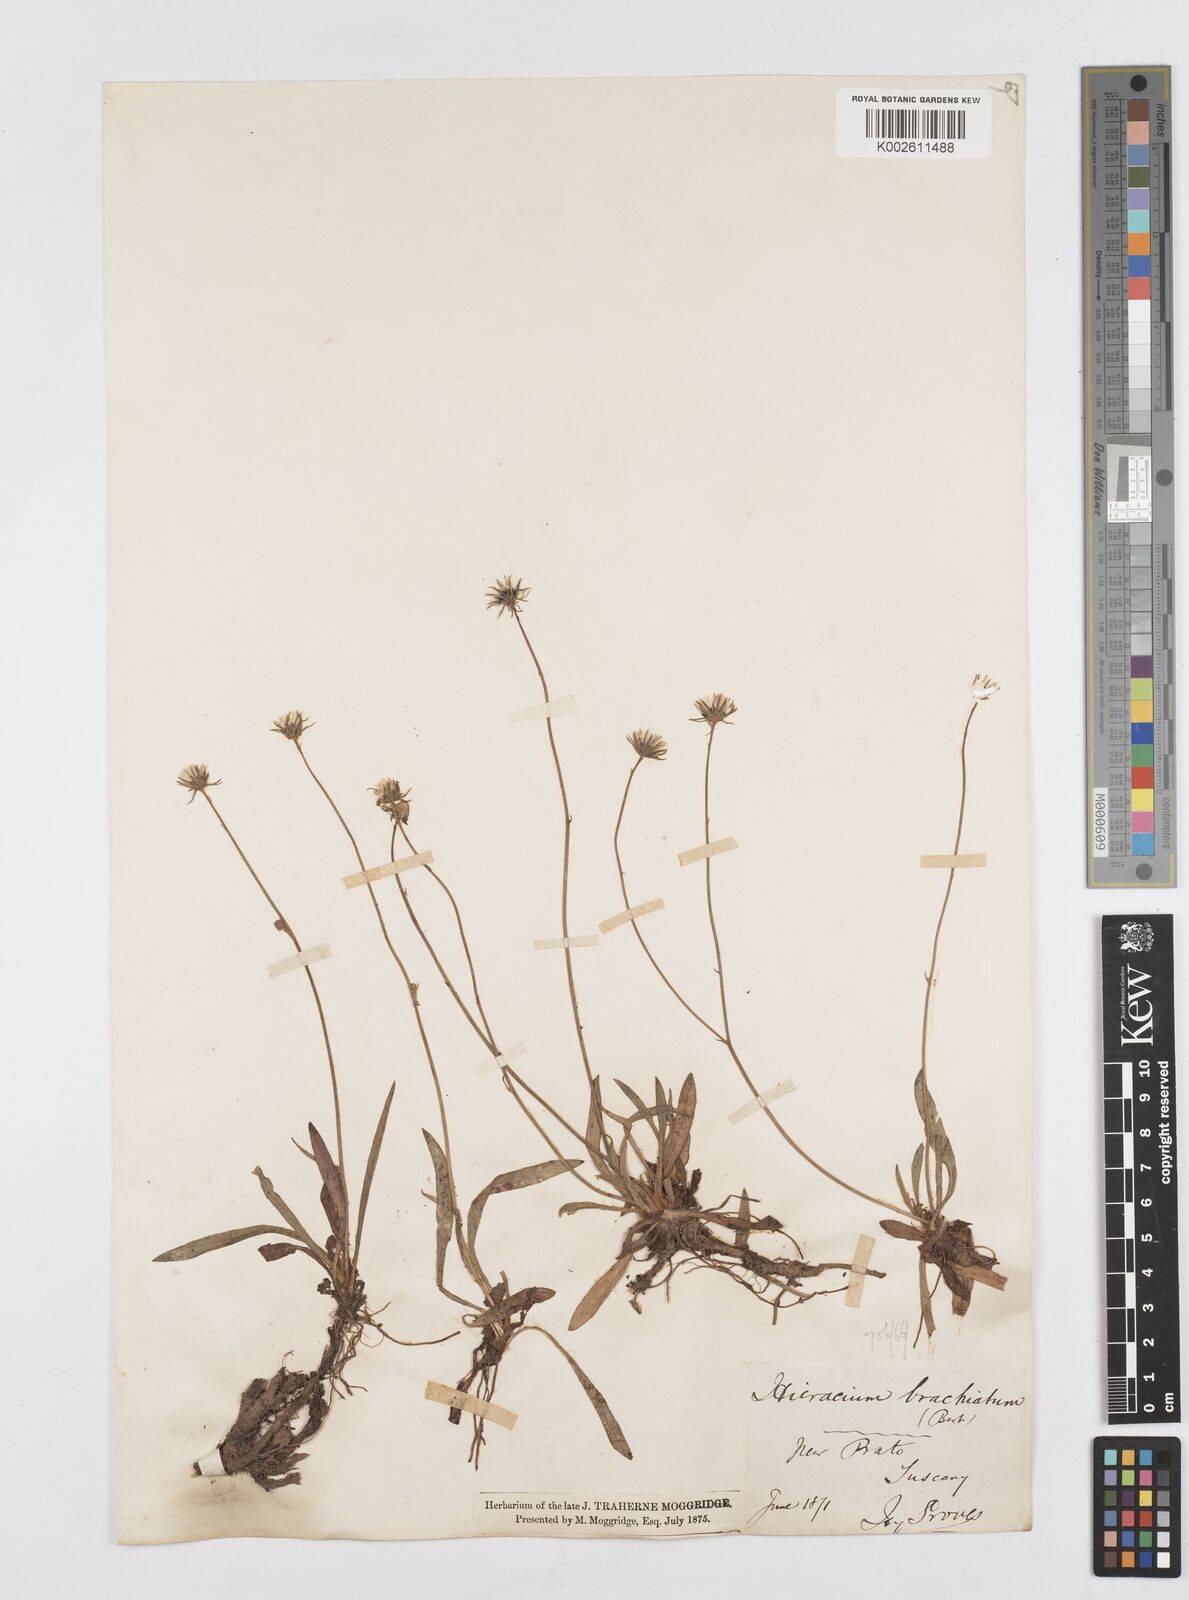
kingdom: Plantae
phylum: Tracheophyta
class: Magnoliopsida
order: Asterales
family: Asteraceae
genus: Pilosella
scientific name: Pilosella acutifolia
